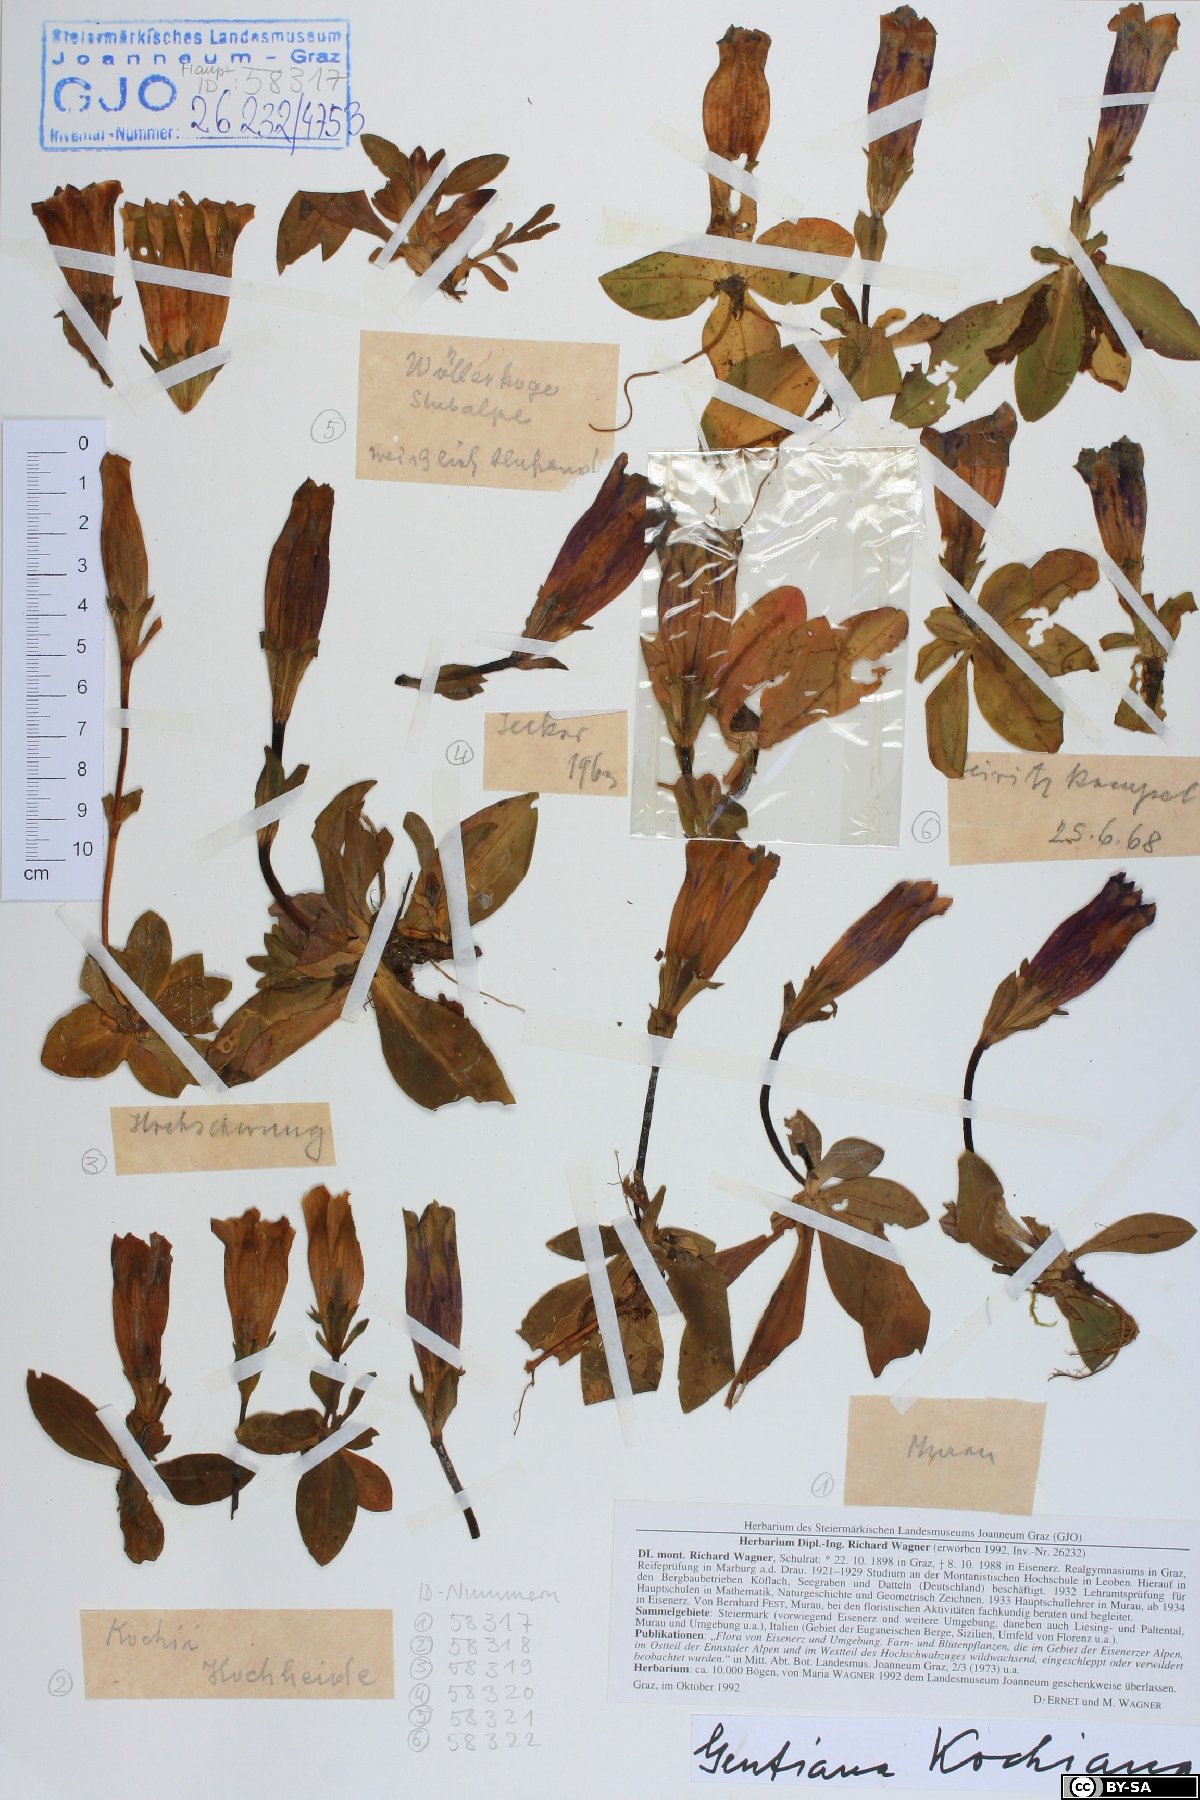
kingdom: Plantae
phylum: Tracheophyta
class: Magnoliopsida
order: Gentianales
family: Gentianaceae
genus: Gentiana
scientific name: Gentiana acaulis
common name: Trumpet gentian
